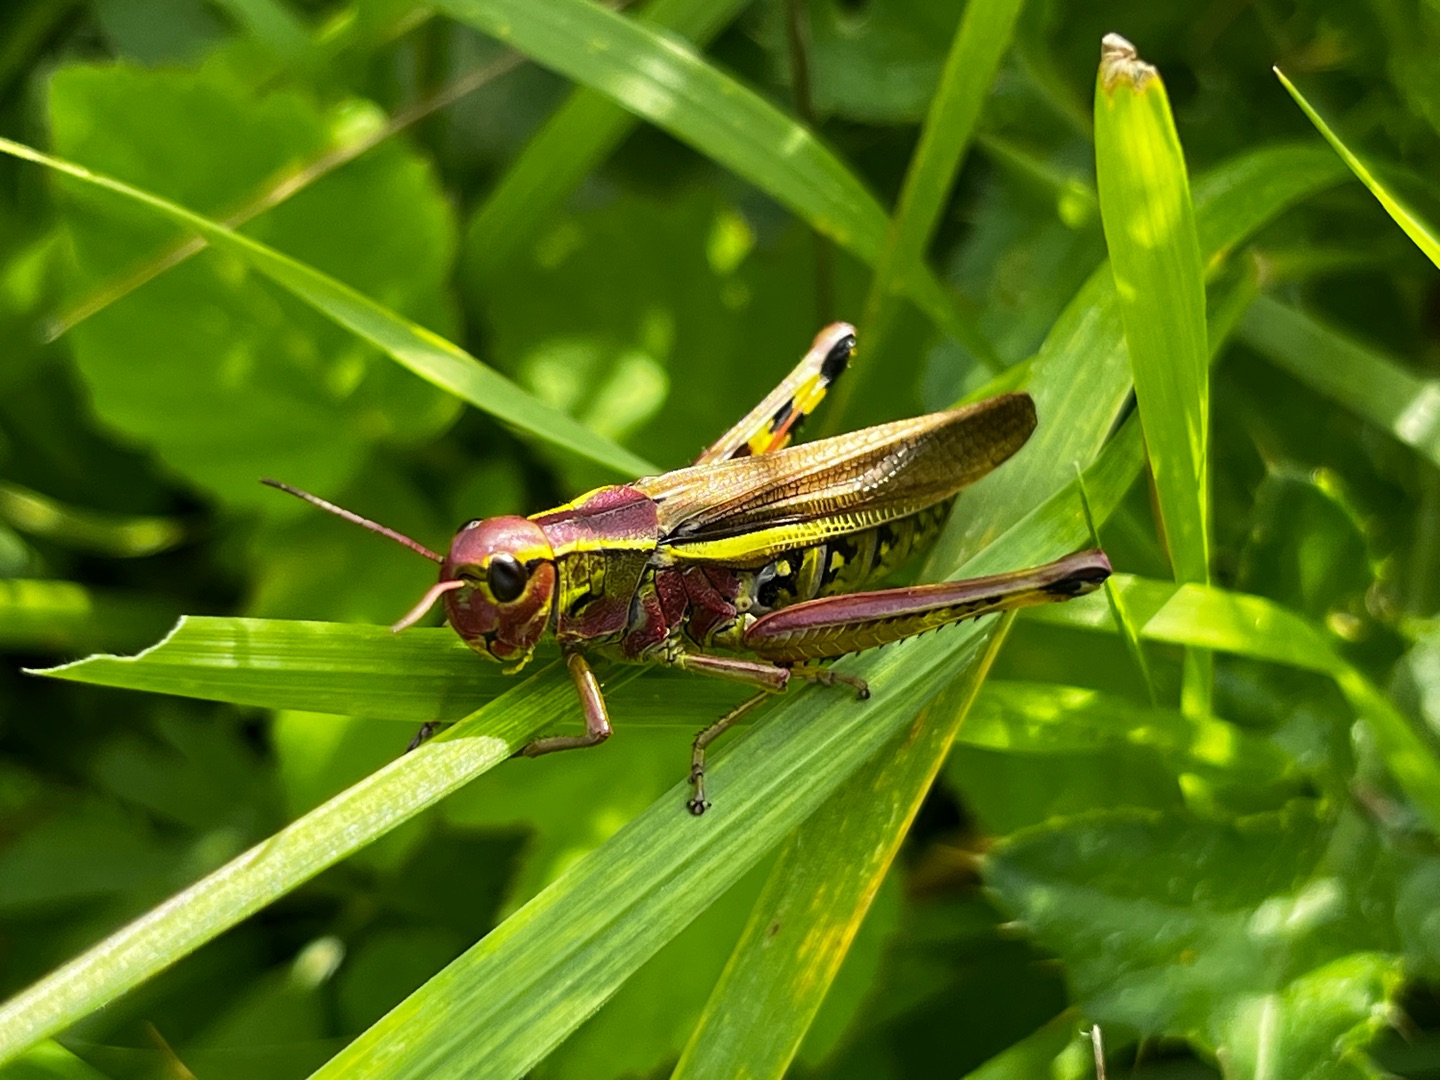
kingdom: Animalia
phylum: Arthropoda
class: Insecta
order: Orthoptera
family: Acrididae
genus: Stethophyma
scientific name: Stethophyma grossum
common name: Sumpgræshoppe
